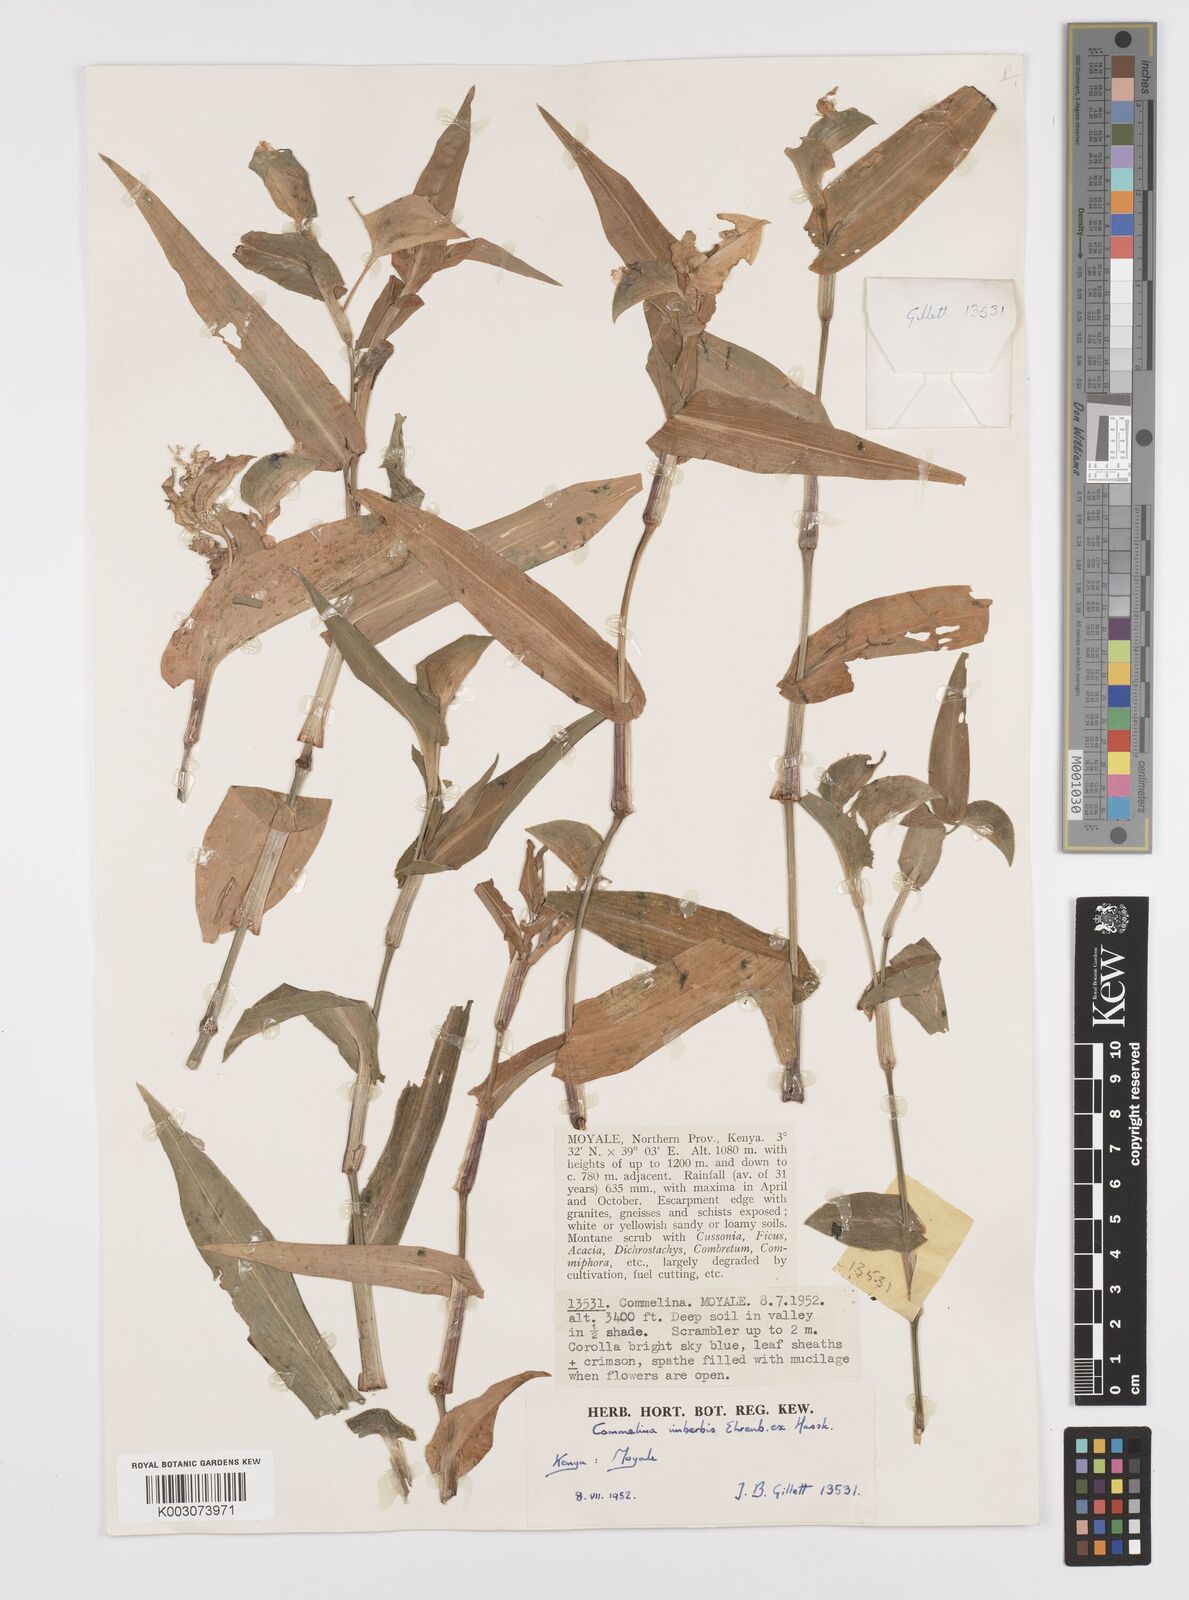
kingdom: Plantae
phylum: Tracheophyta
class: Liliopsida
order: Commelinales
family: Commelinaceae
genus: Commelina
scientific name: Commelina imberbis
